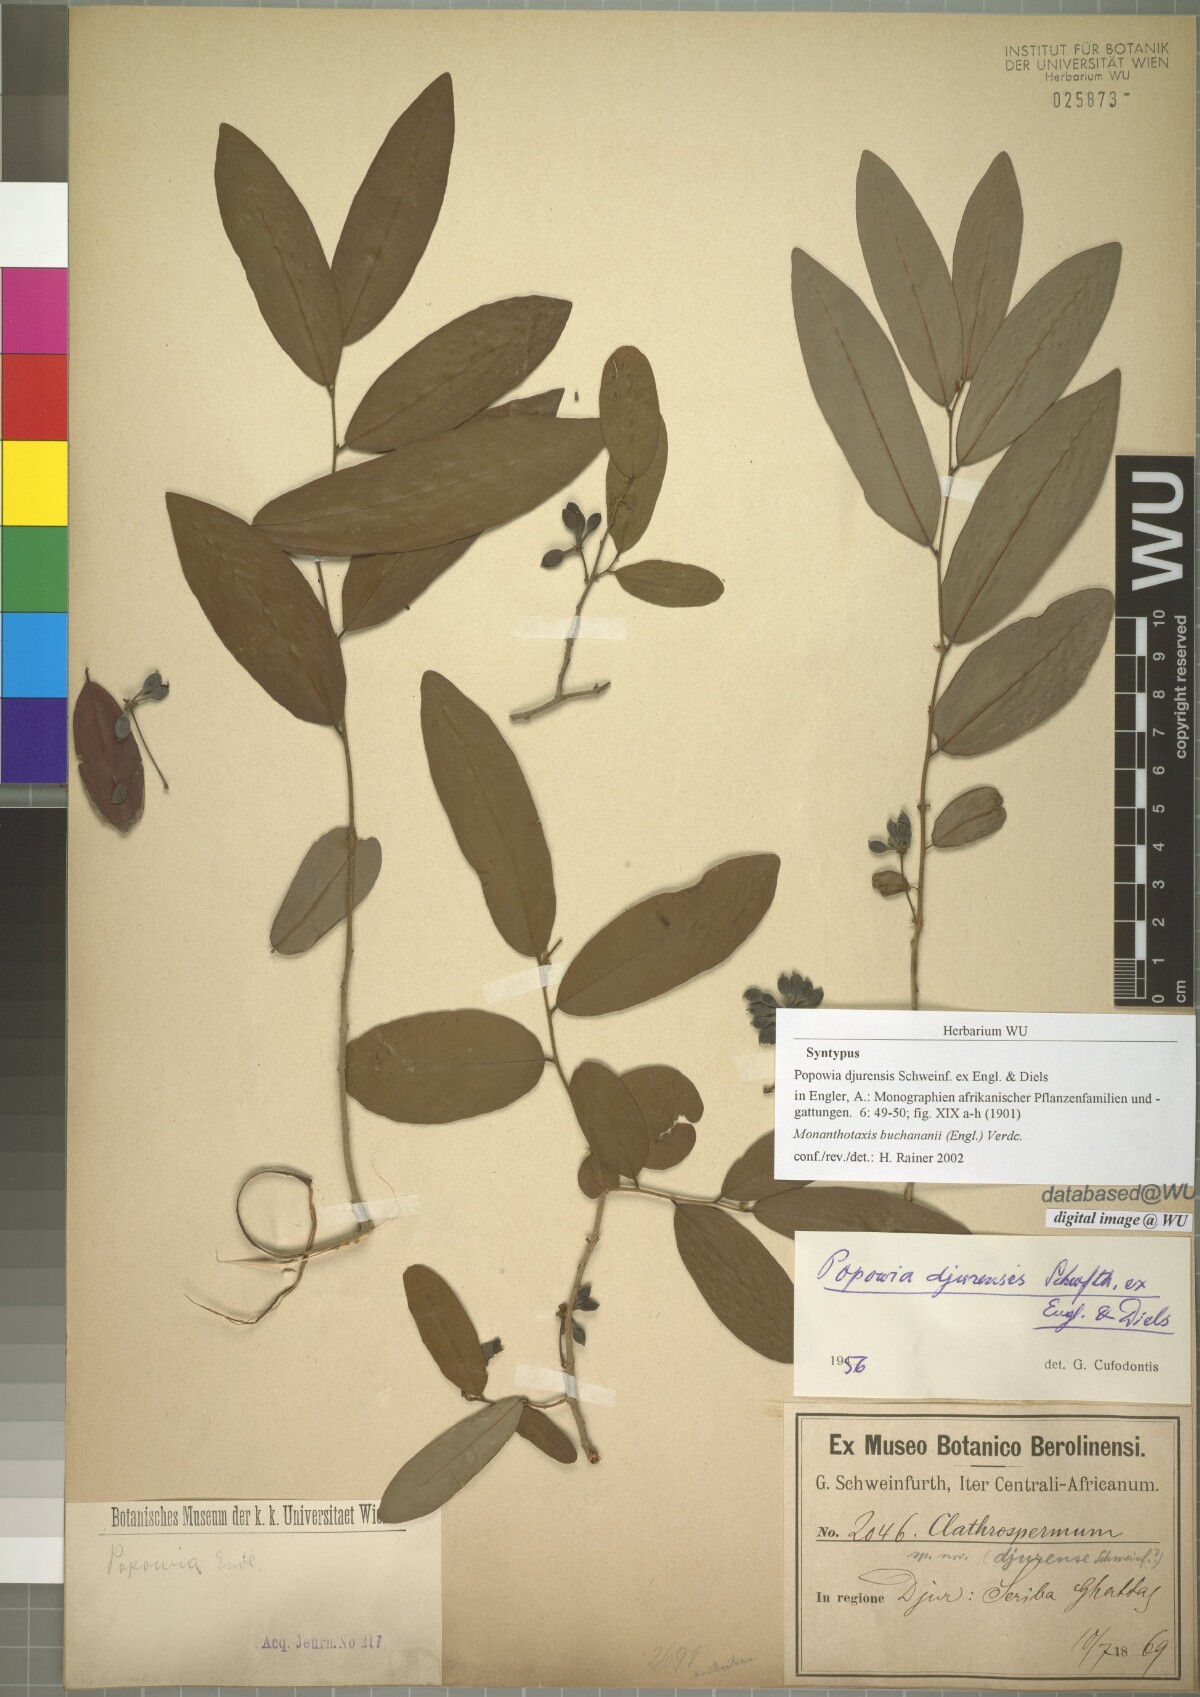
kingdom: Plantae
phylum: Tracheophyta
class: Magnoliopsida
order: Magnoliales
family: Annonaceae
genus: Monanthotaxis
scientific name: Monanthotaxis buchananii
